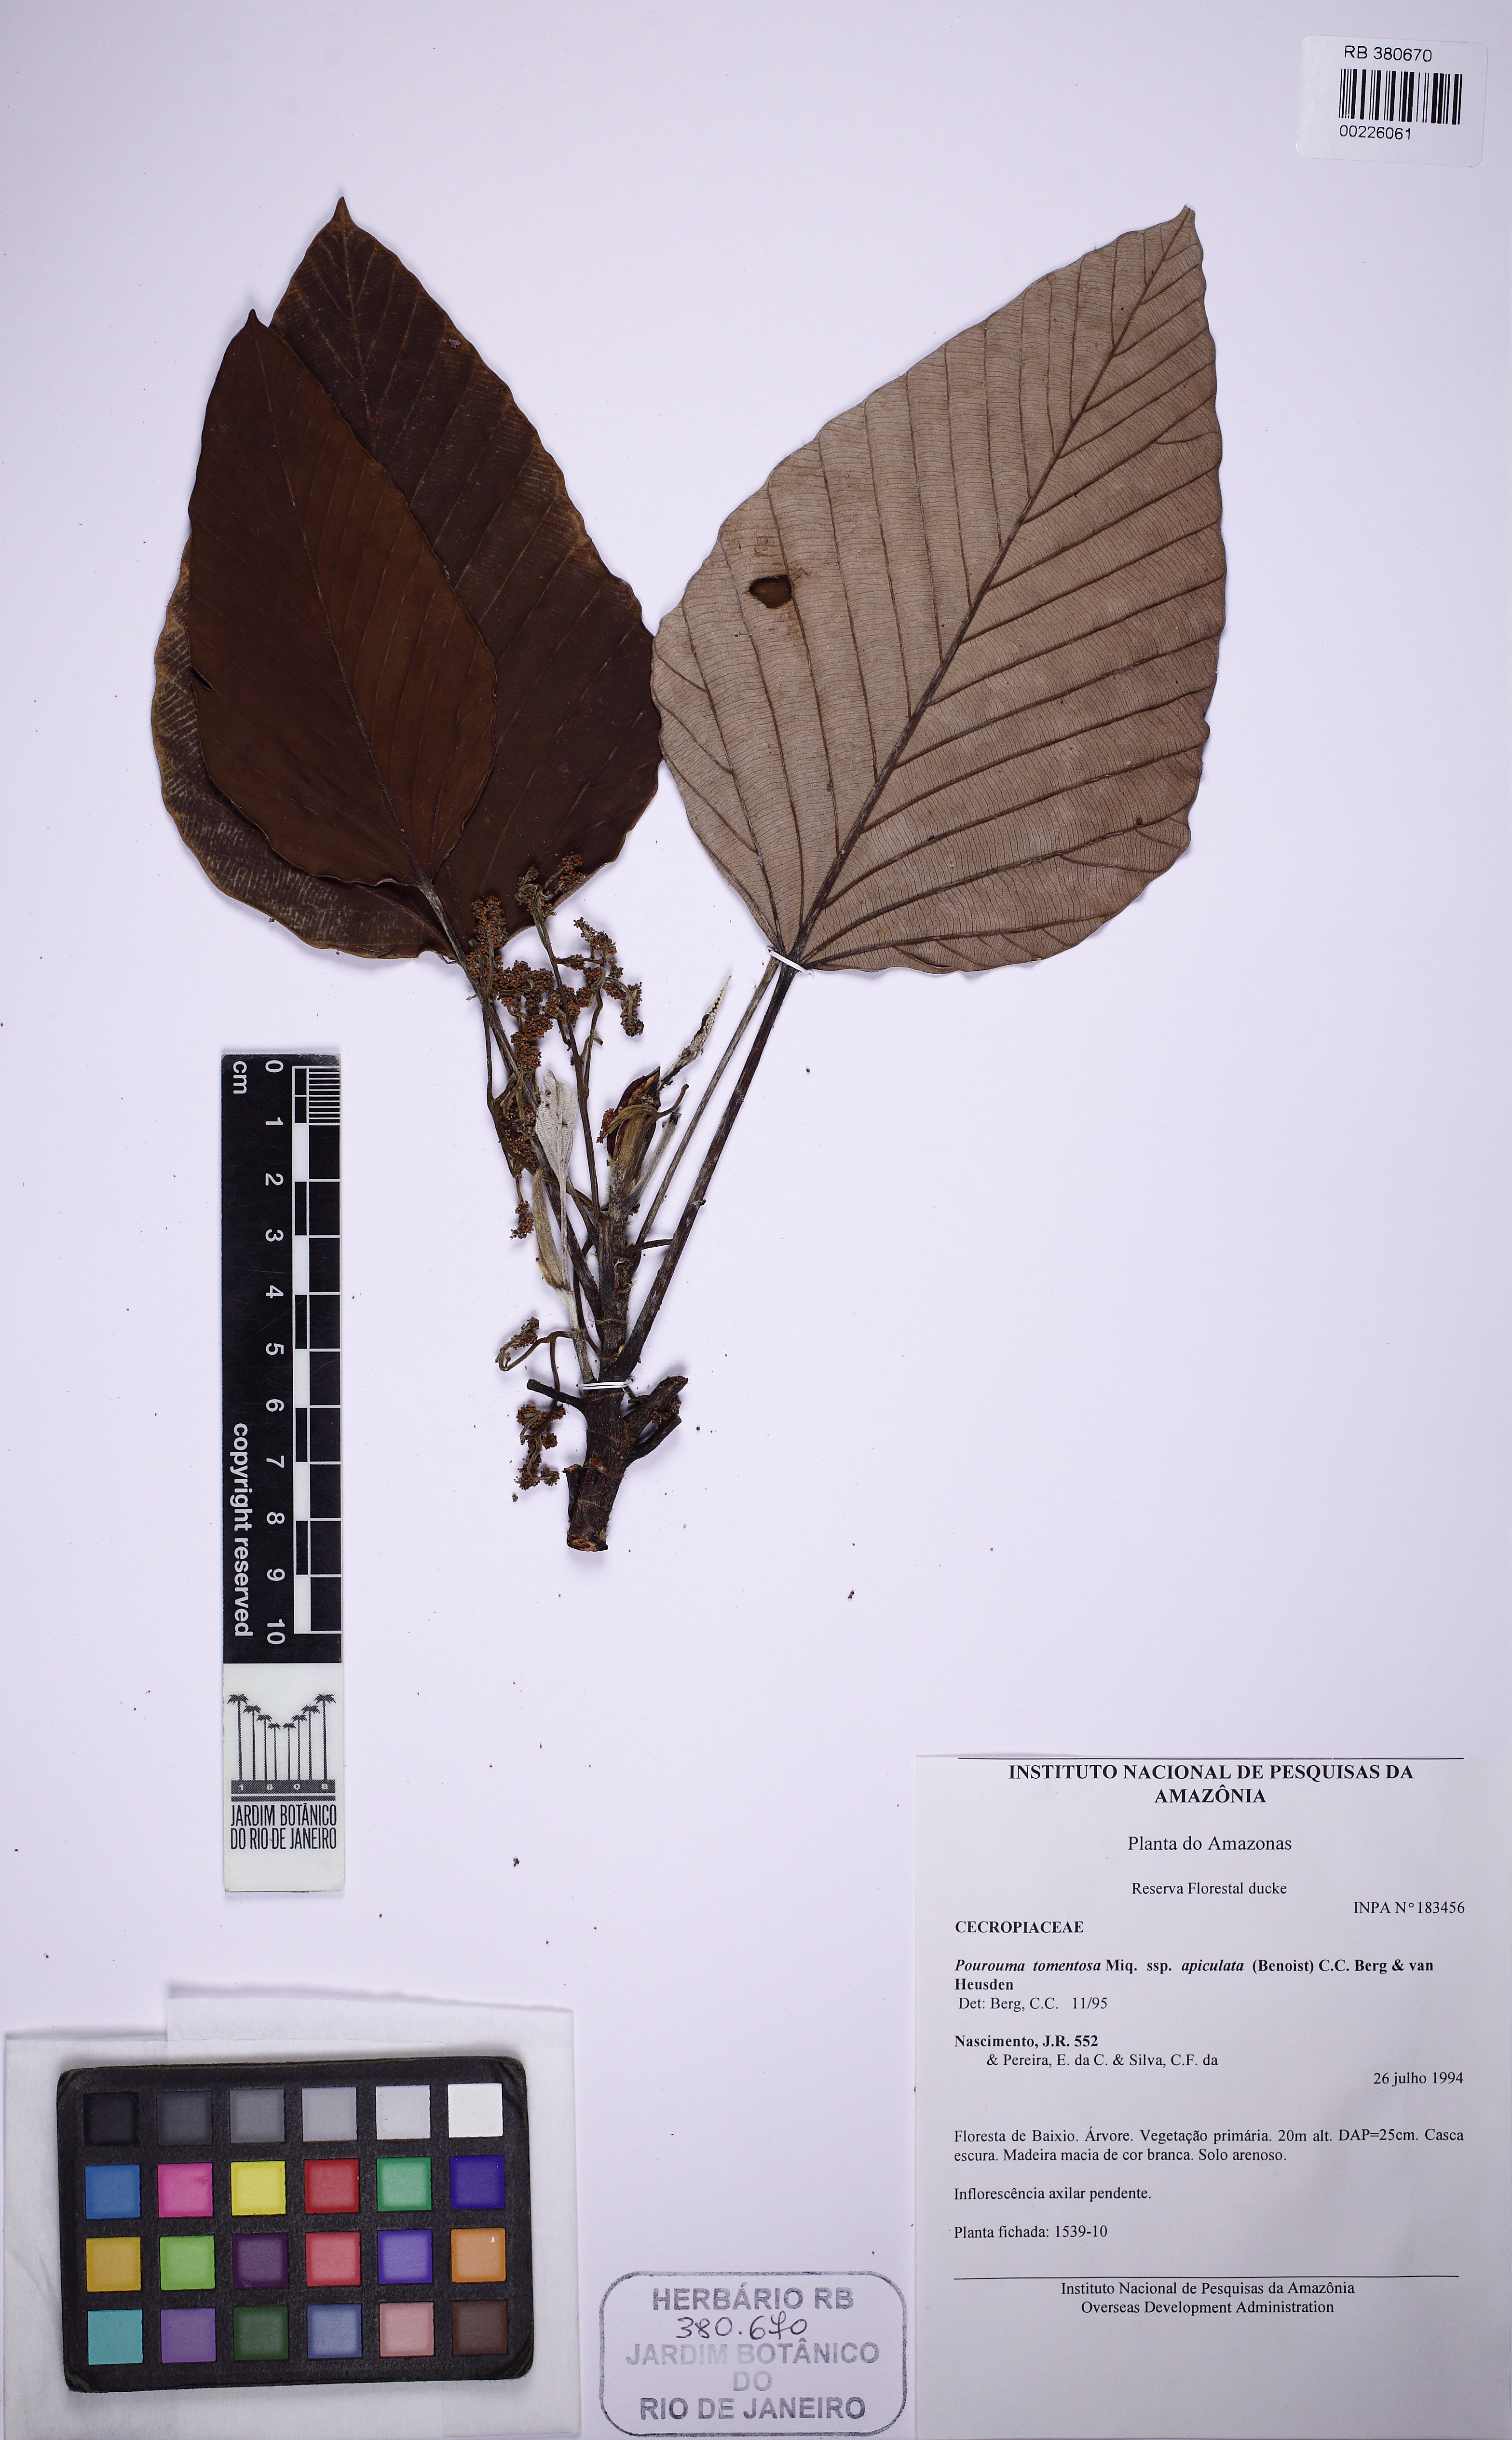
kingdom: Plantae
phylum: Tracheophyta
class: Magnoliopsida
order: Rosales
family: Urticaceae
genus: Pourouma
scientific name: Pourouma tomentosa
